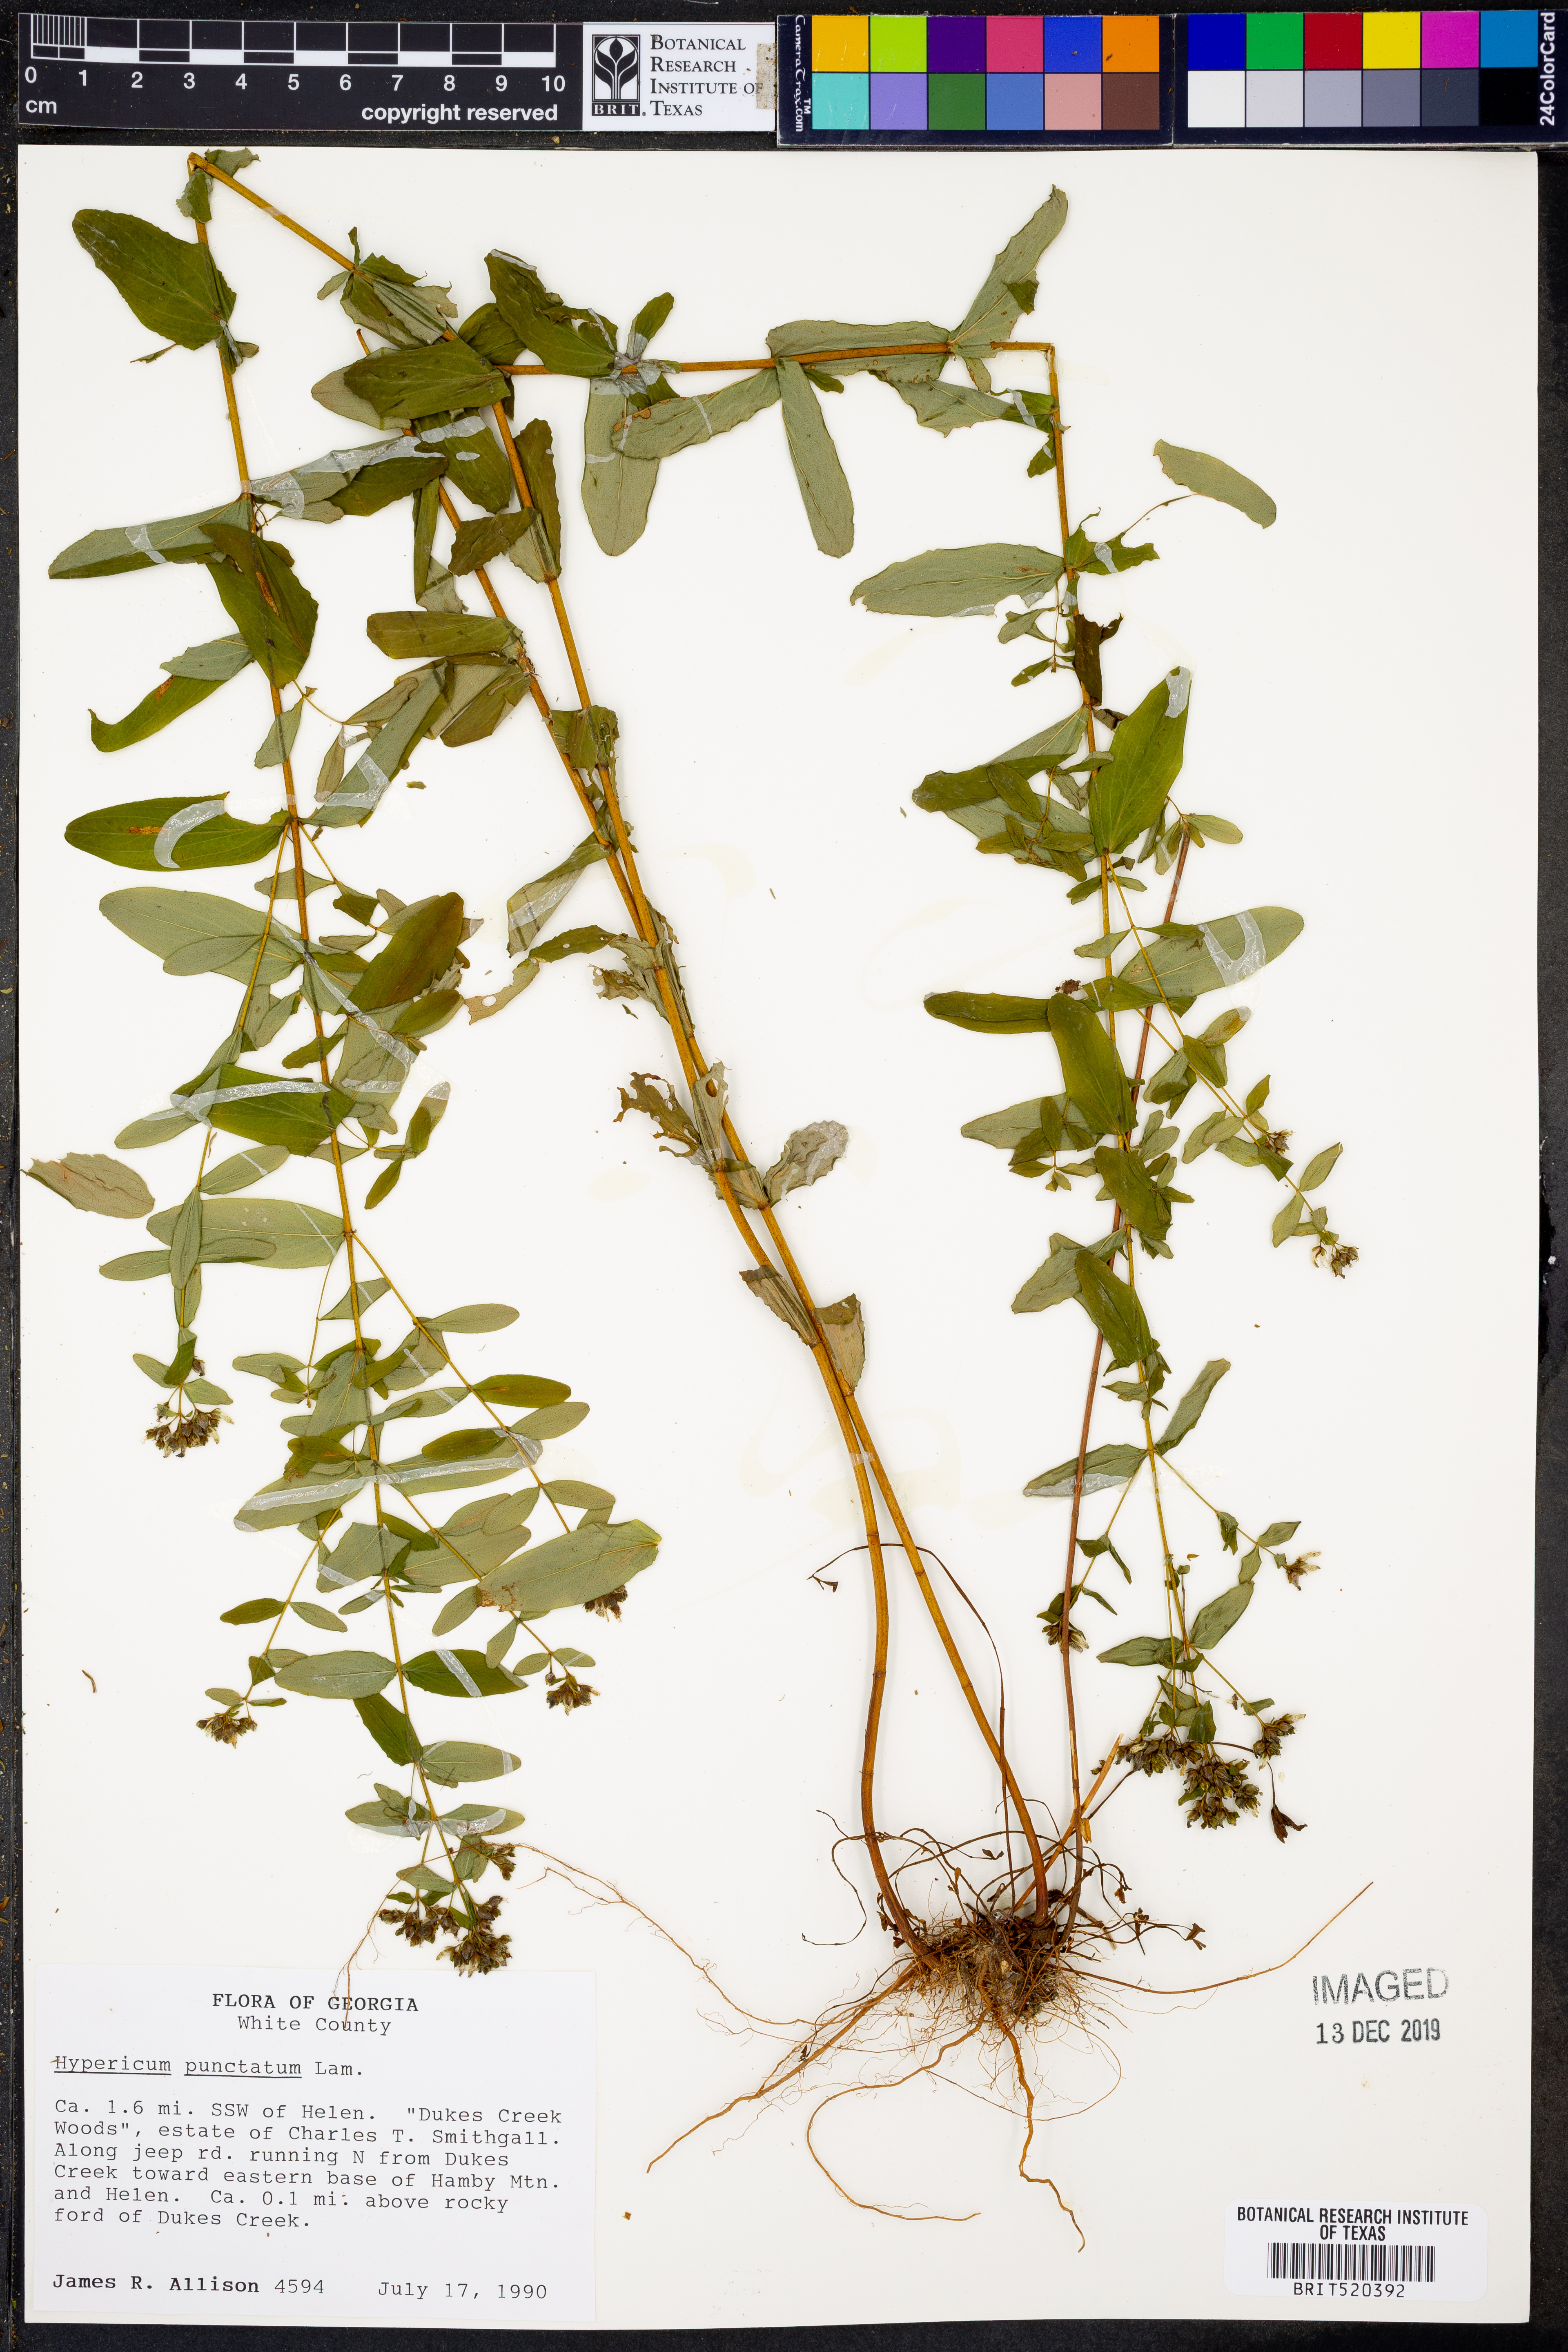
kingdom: Plantae
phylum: Tracheophyta
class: Magnoliopsida
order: Malpighiales
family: Hypericaceae
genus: Hypericum
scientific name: Hypericum punctatum
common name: Spotted st. john's-wort
